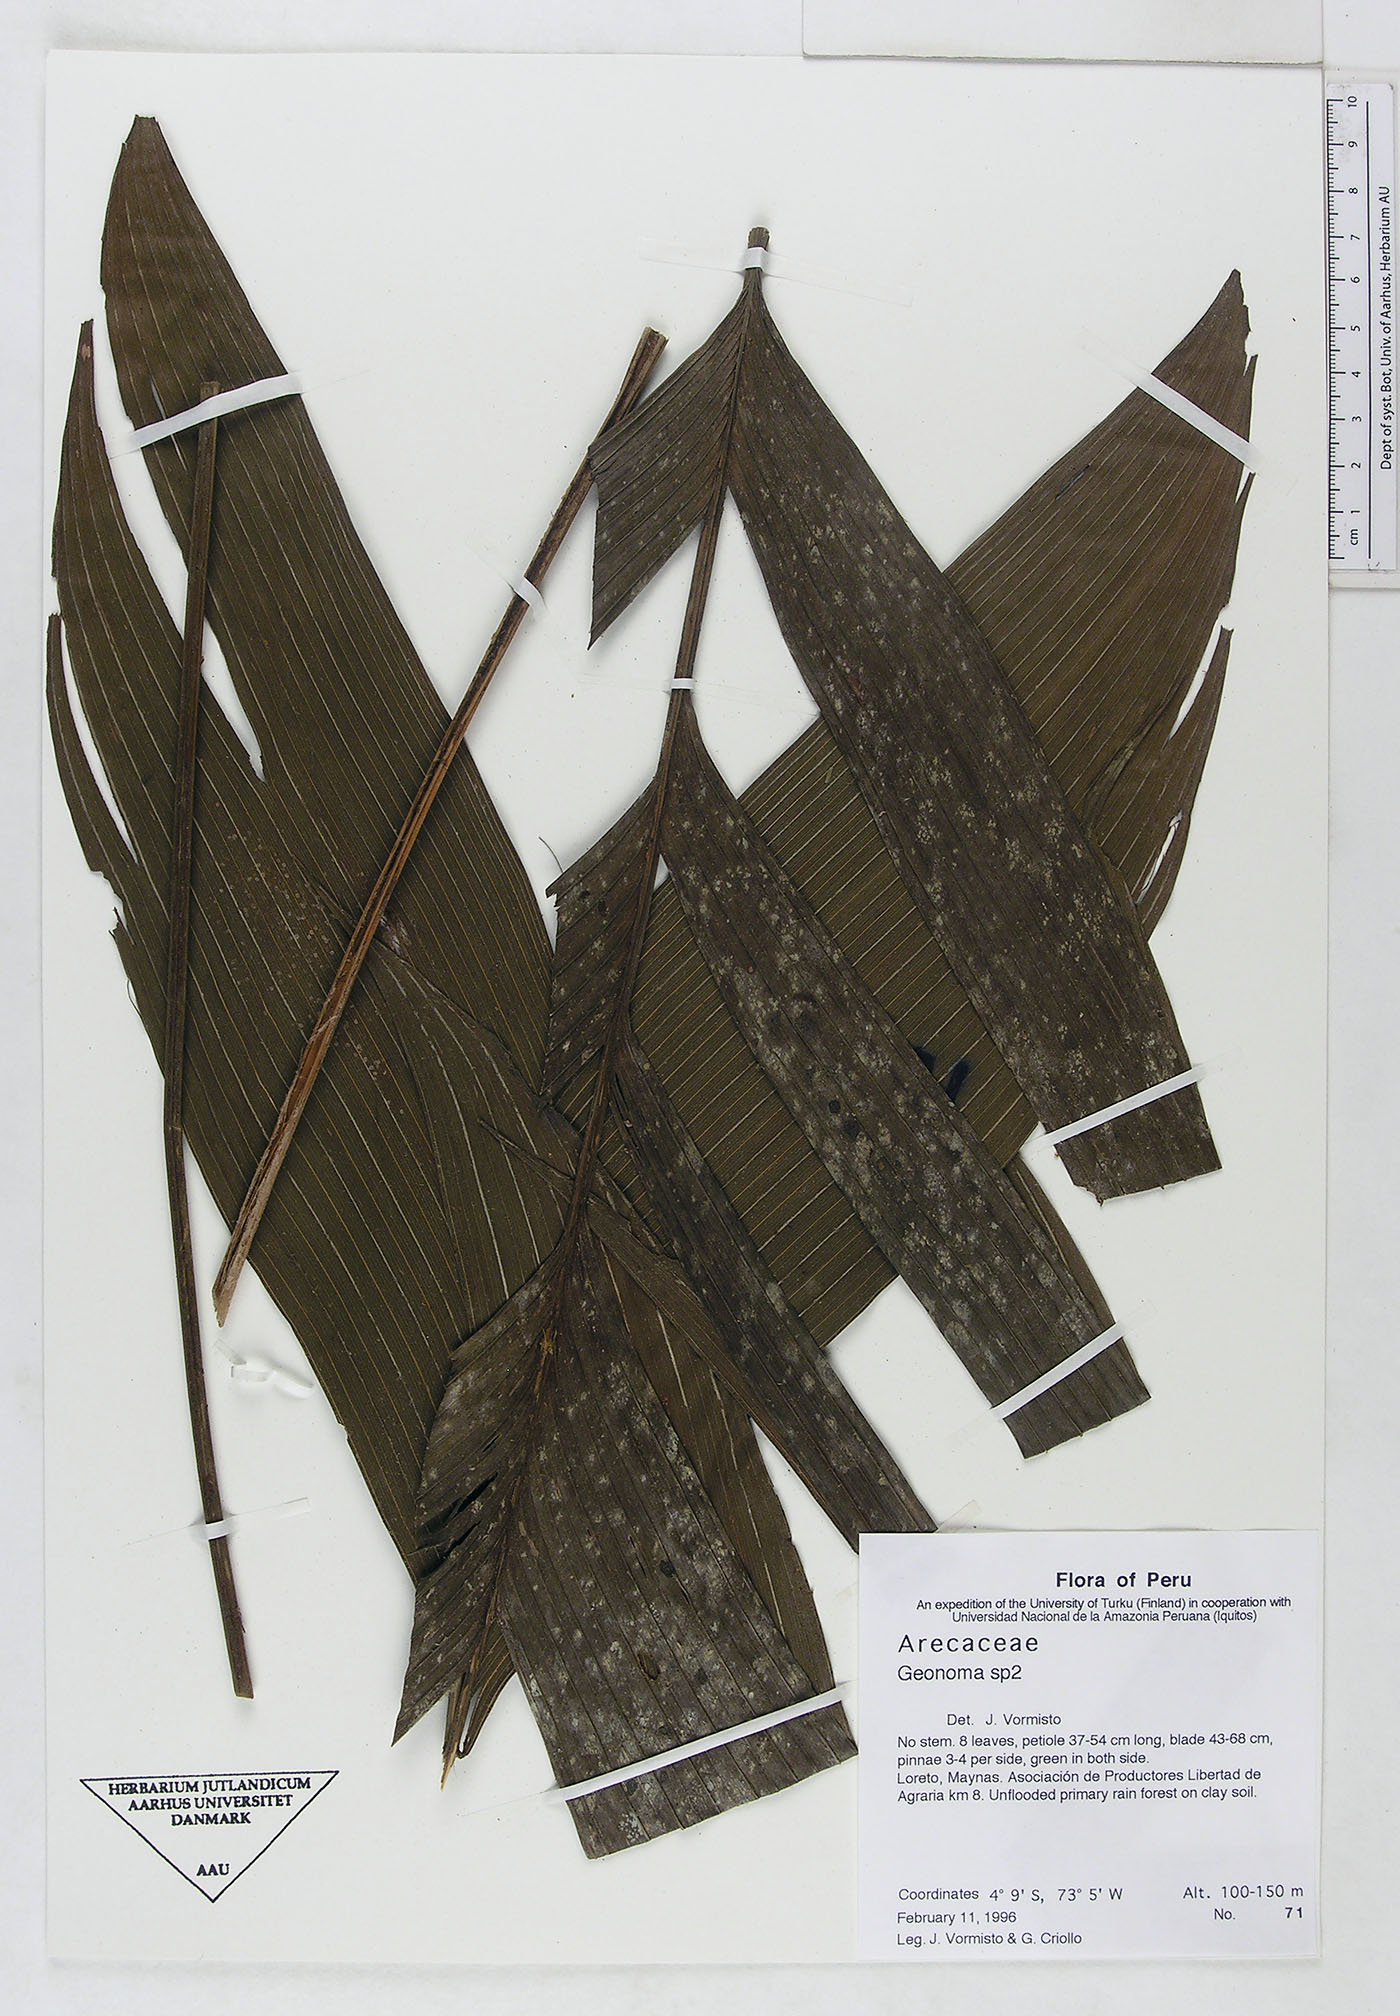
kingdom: Plantae
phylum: Tracheophyta
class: Liliopsida
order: Arecales
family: Arecaceae
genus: Geonoma
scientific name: Geonoma
